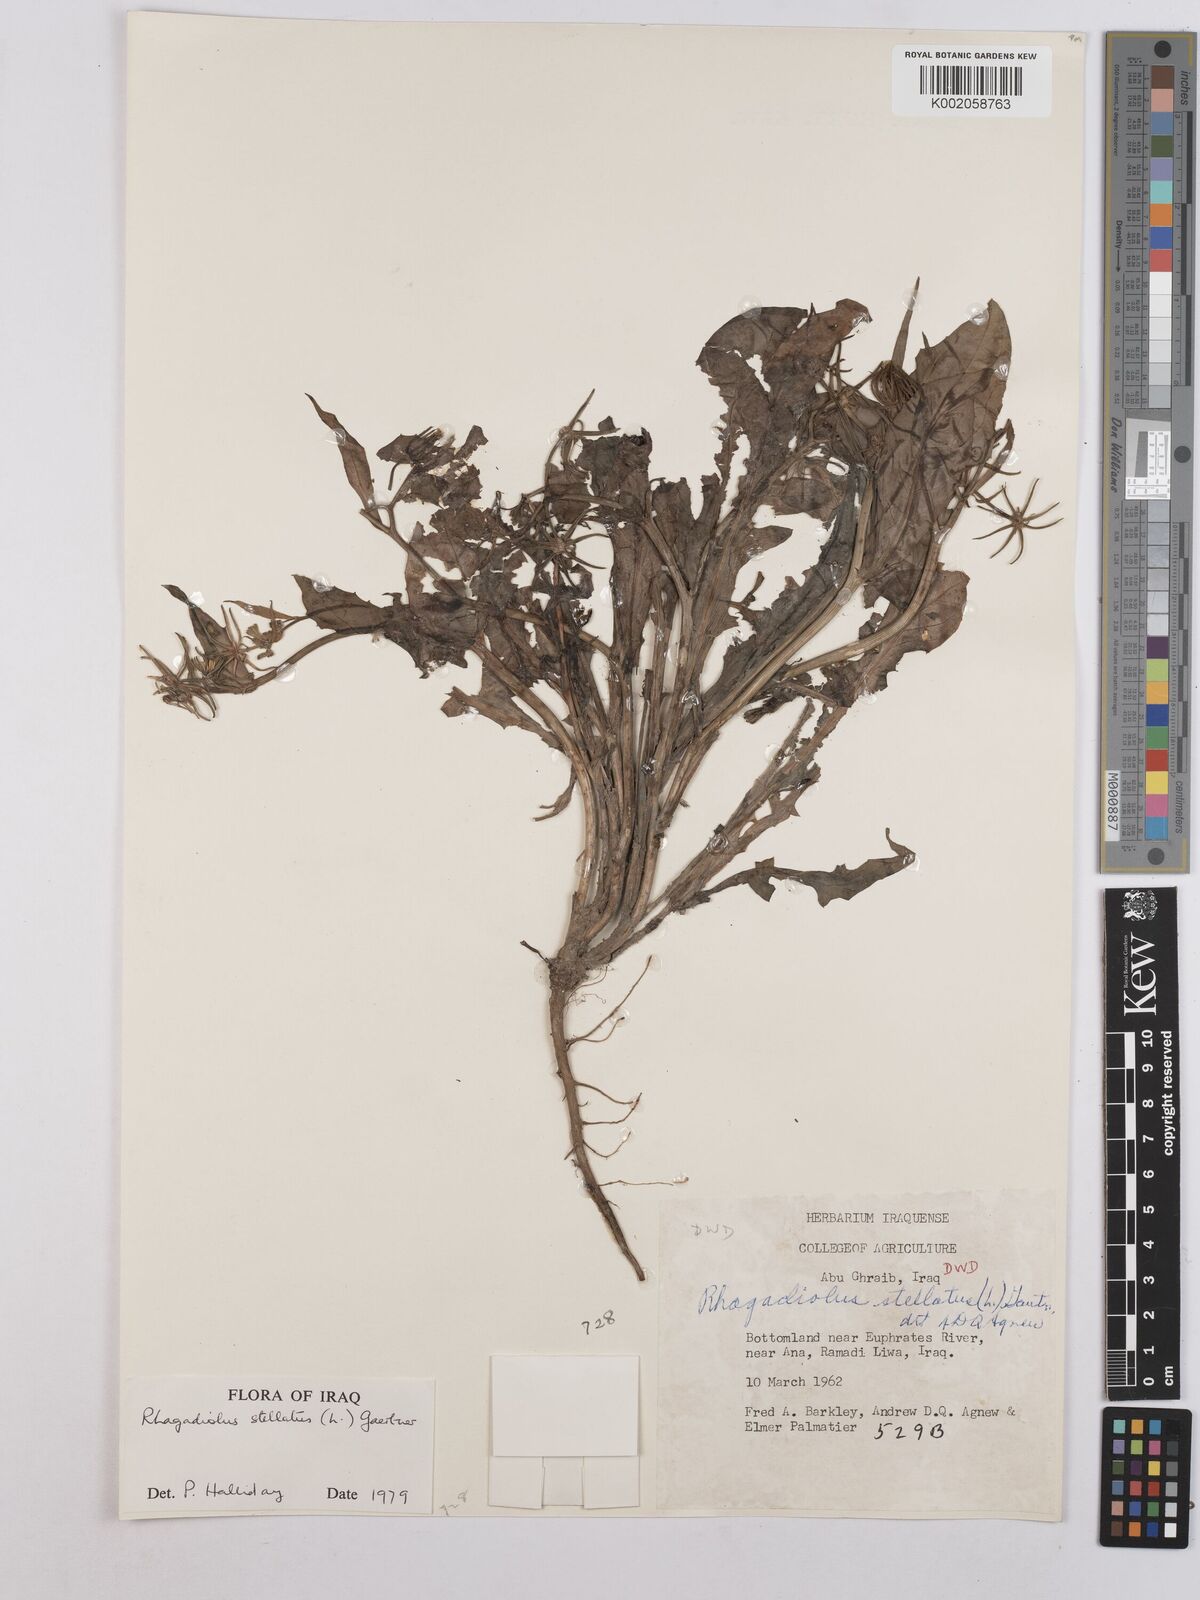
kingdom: Plantae
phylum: Tracheophyta
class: Magnoliopsida
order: Asterales
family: Asteraceae
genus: Rhagadiolus
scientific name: Rhagadiolus stellatus
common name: Star hawkbit
